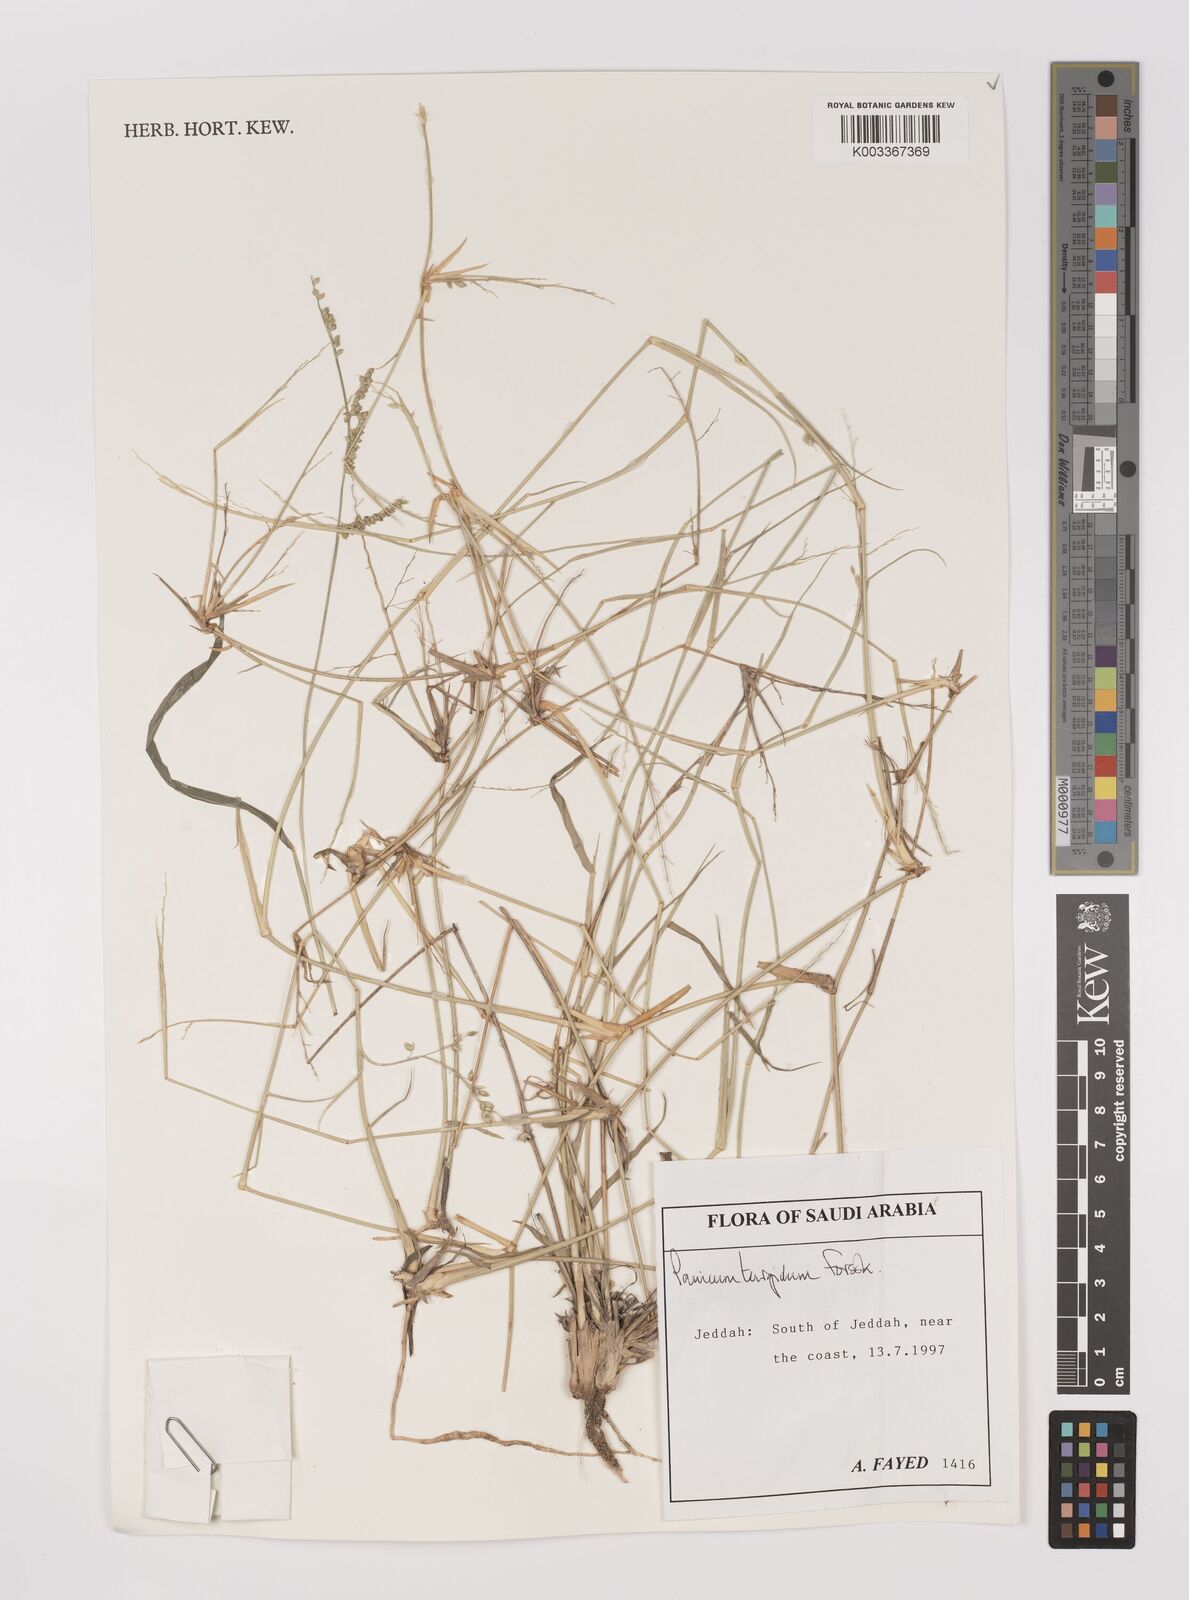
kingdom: Plantae
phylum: Tracheophyta
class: Liliopsida
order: Poales
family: Poaceae
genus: Panicum
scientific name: Panicum turgidum
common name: Desert grass
